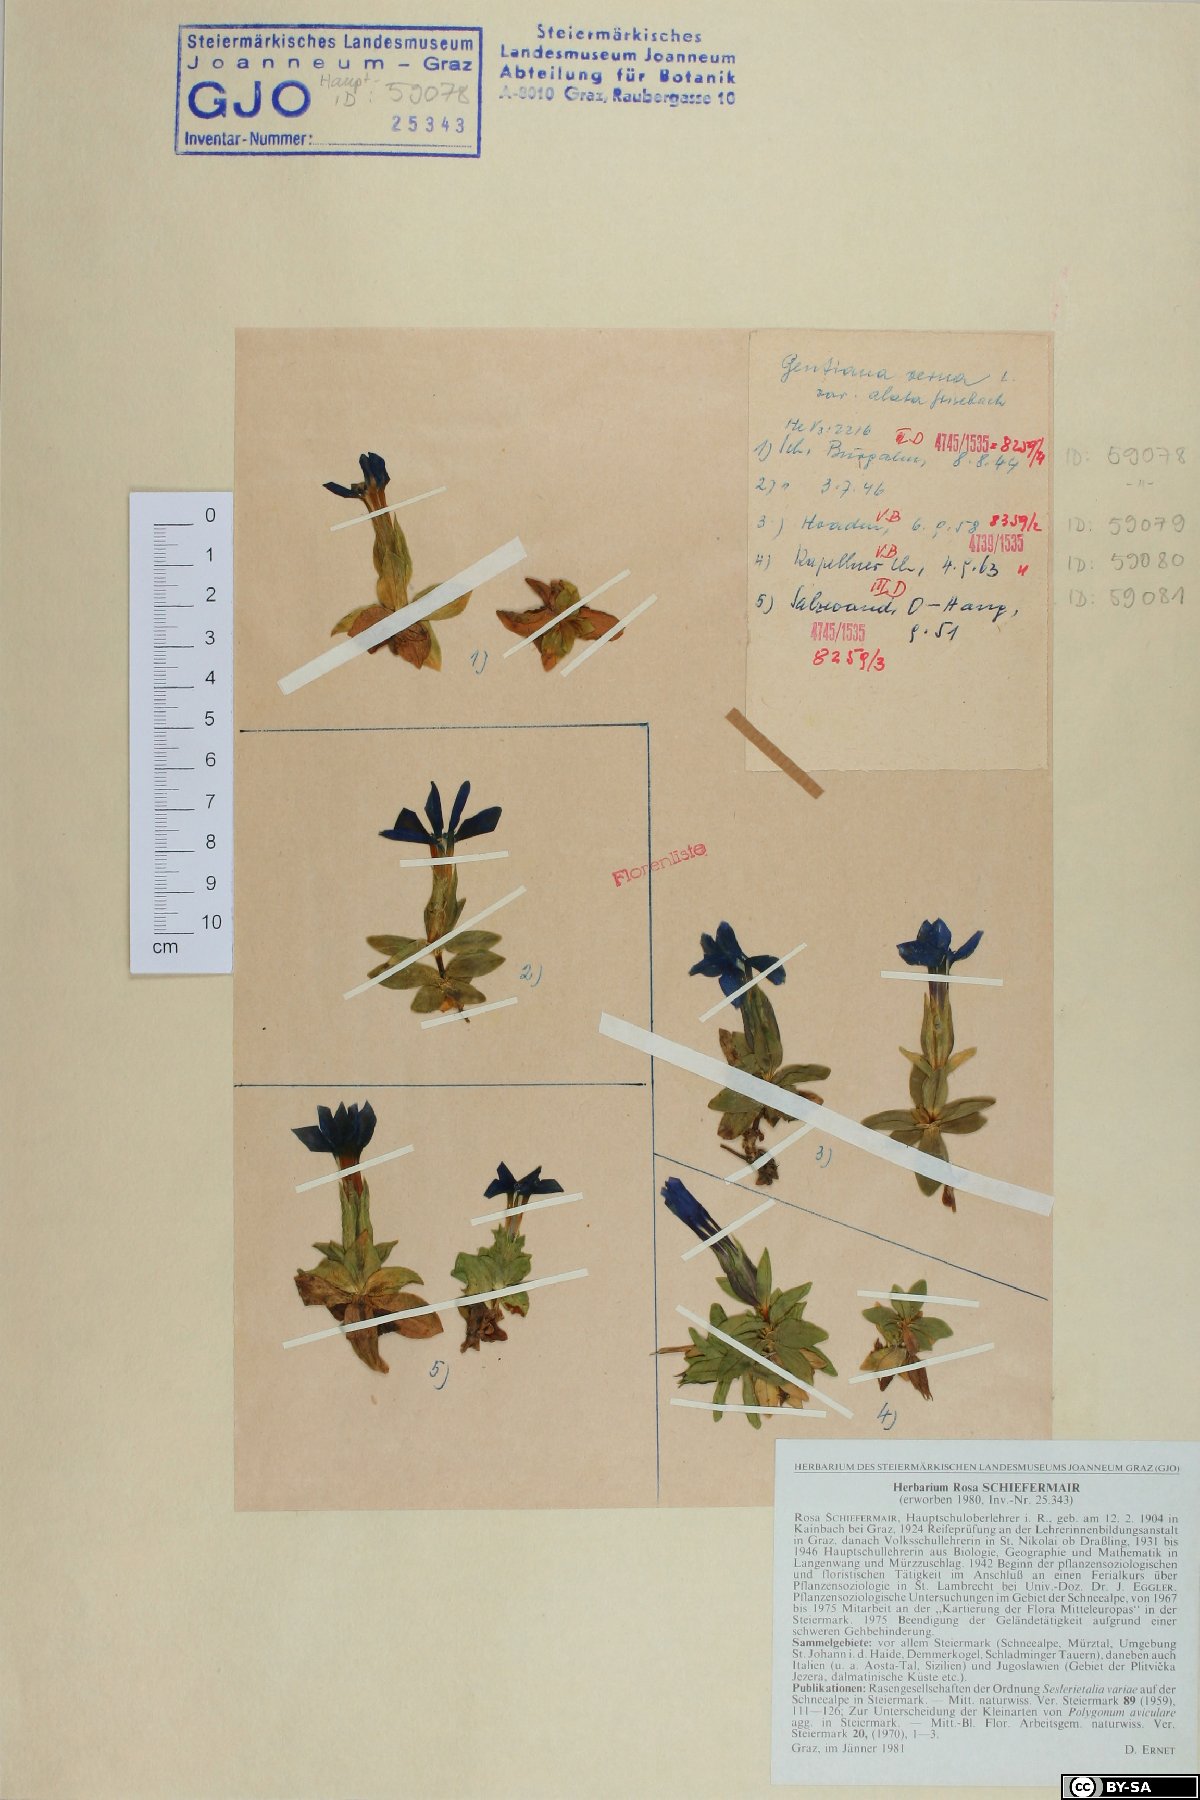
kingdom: Plantae
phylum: Tracheophyta
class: Magnoliopsida
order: Gentianales
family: Gentianaceae
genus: Gentiana
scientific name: Gentiana verna
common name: Spring gentian
